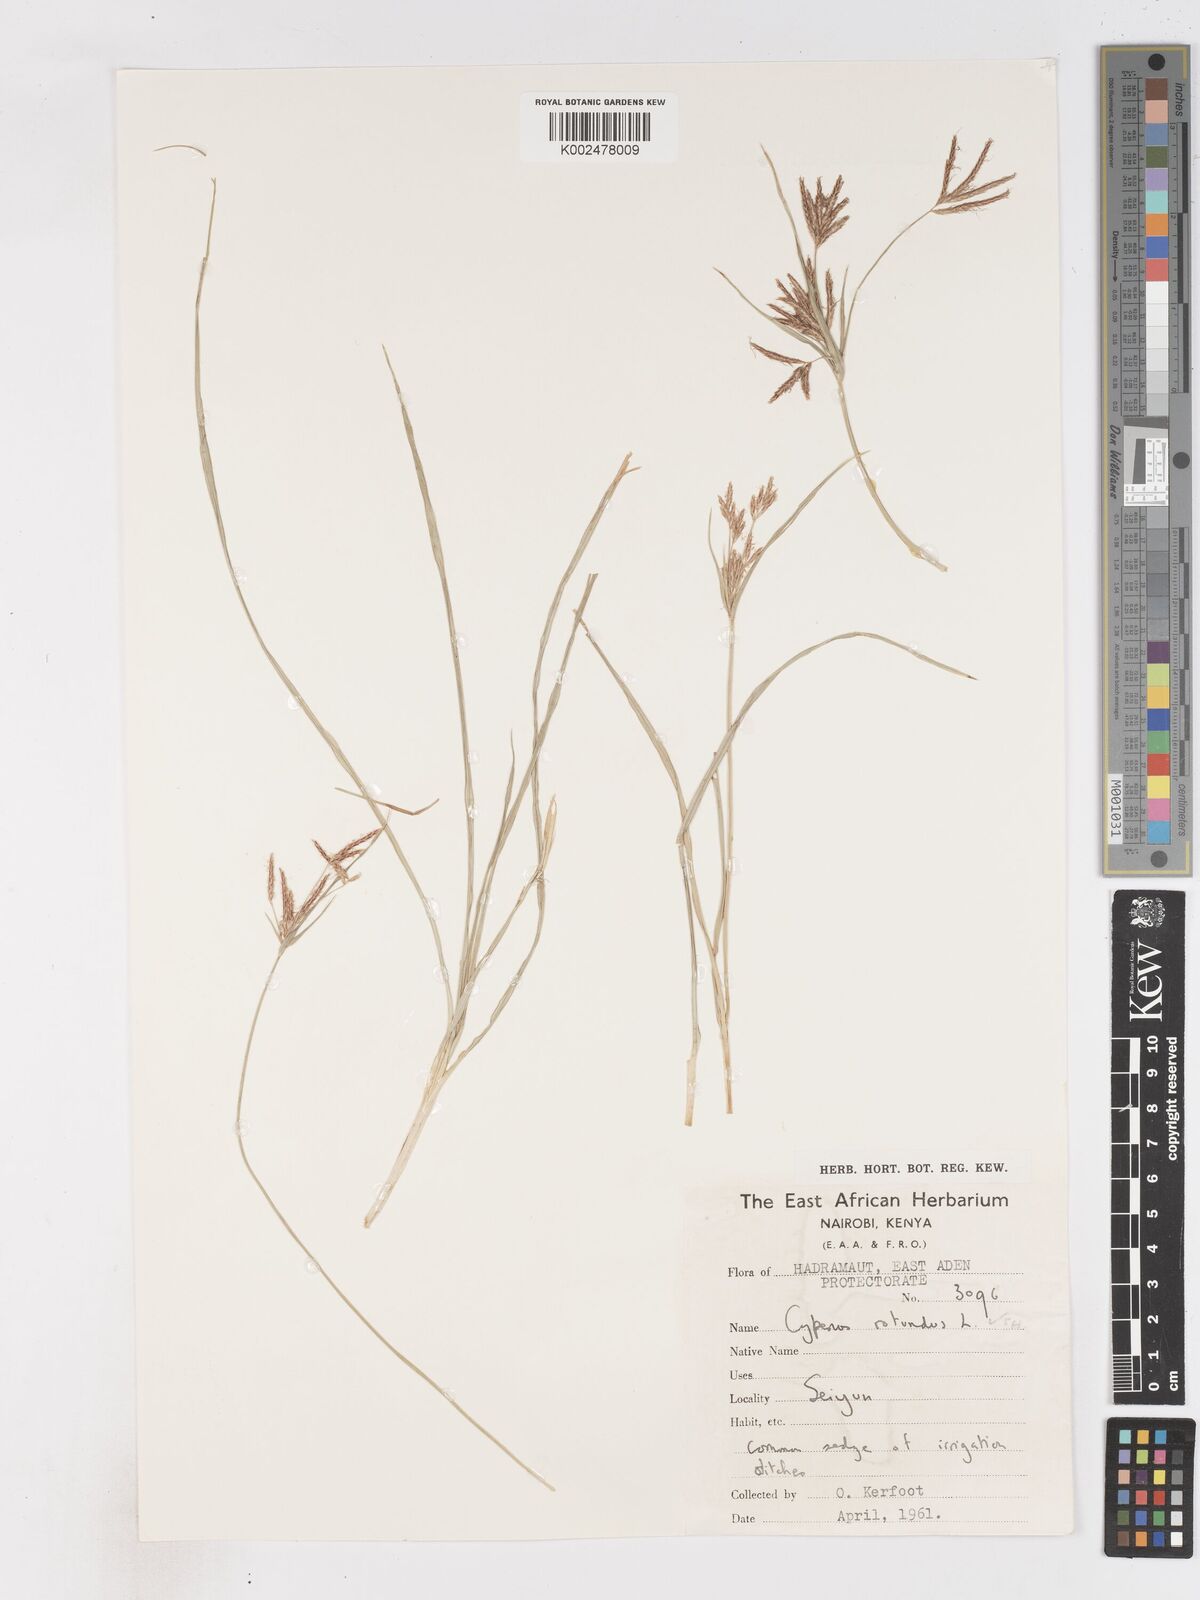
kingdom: Plantae
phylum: Tracheophyta
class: Liliopsida
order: Poales
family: Cyperaceae
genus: Cyperus
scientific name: Cyperus rotundus
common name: Nutgrass
